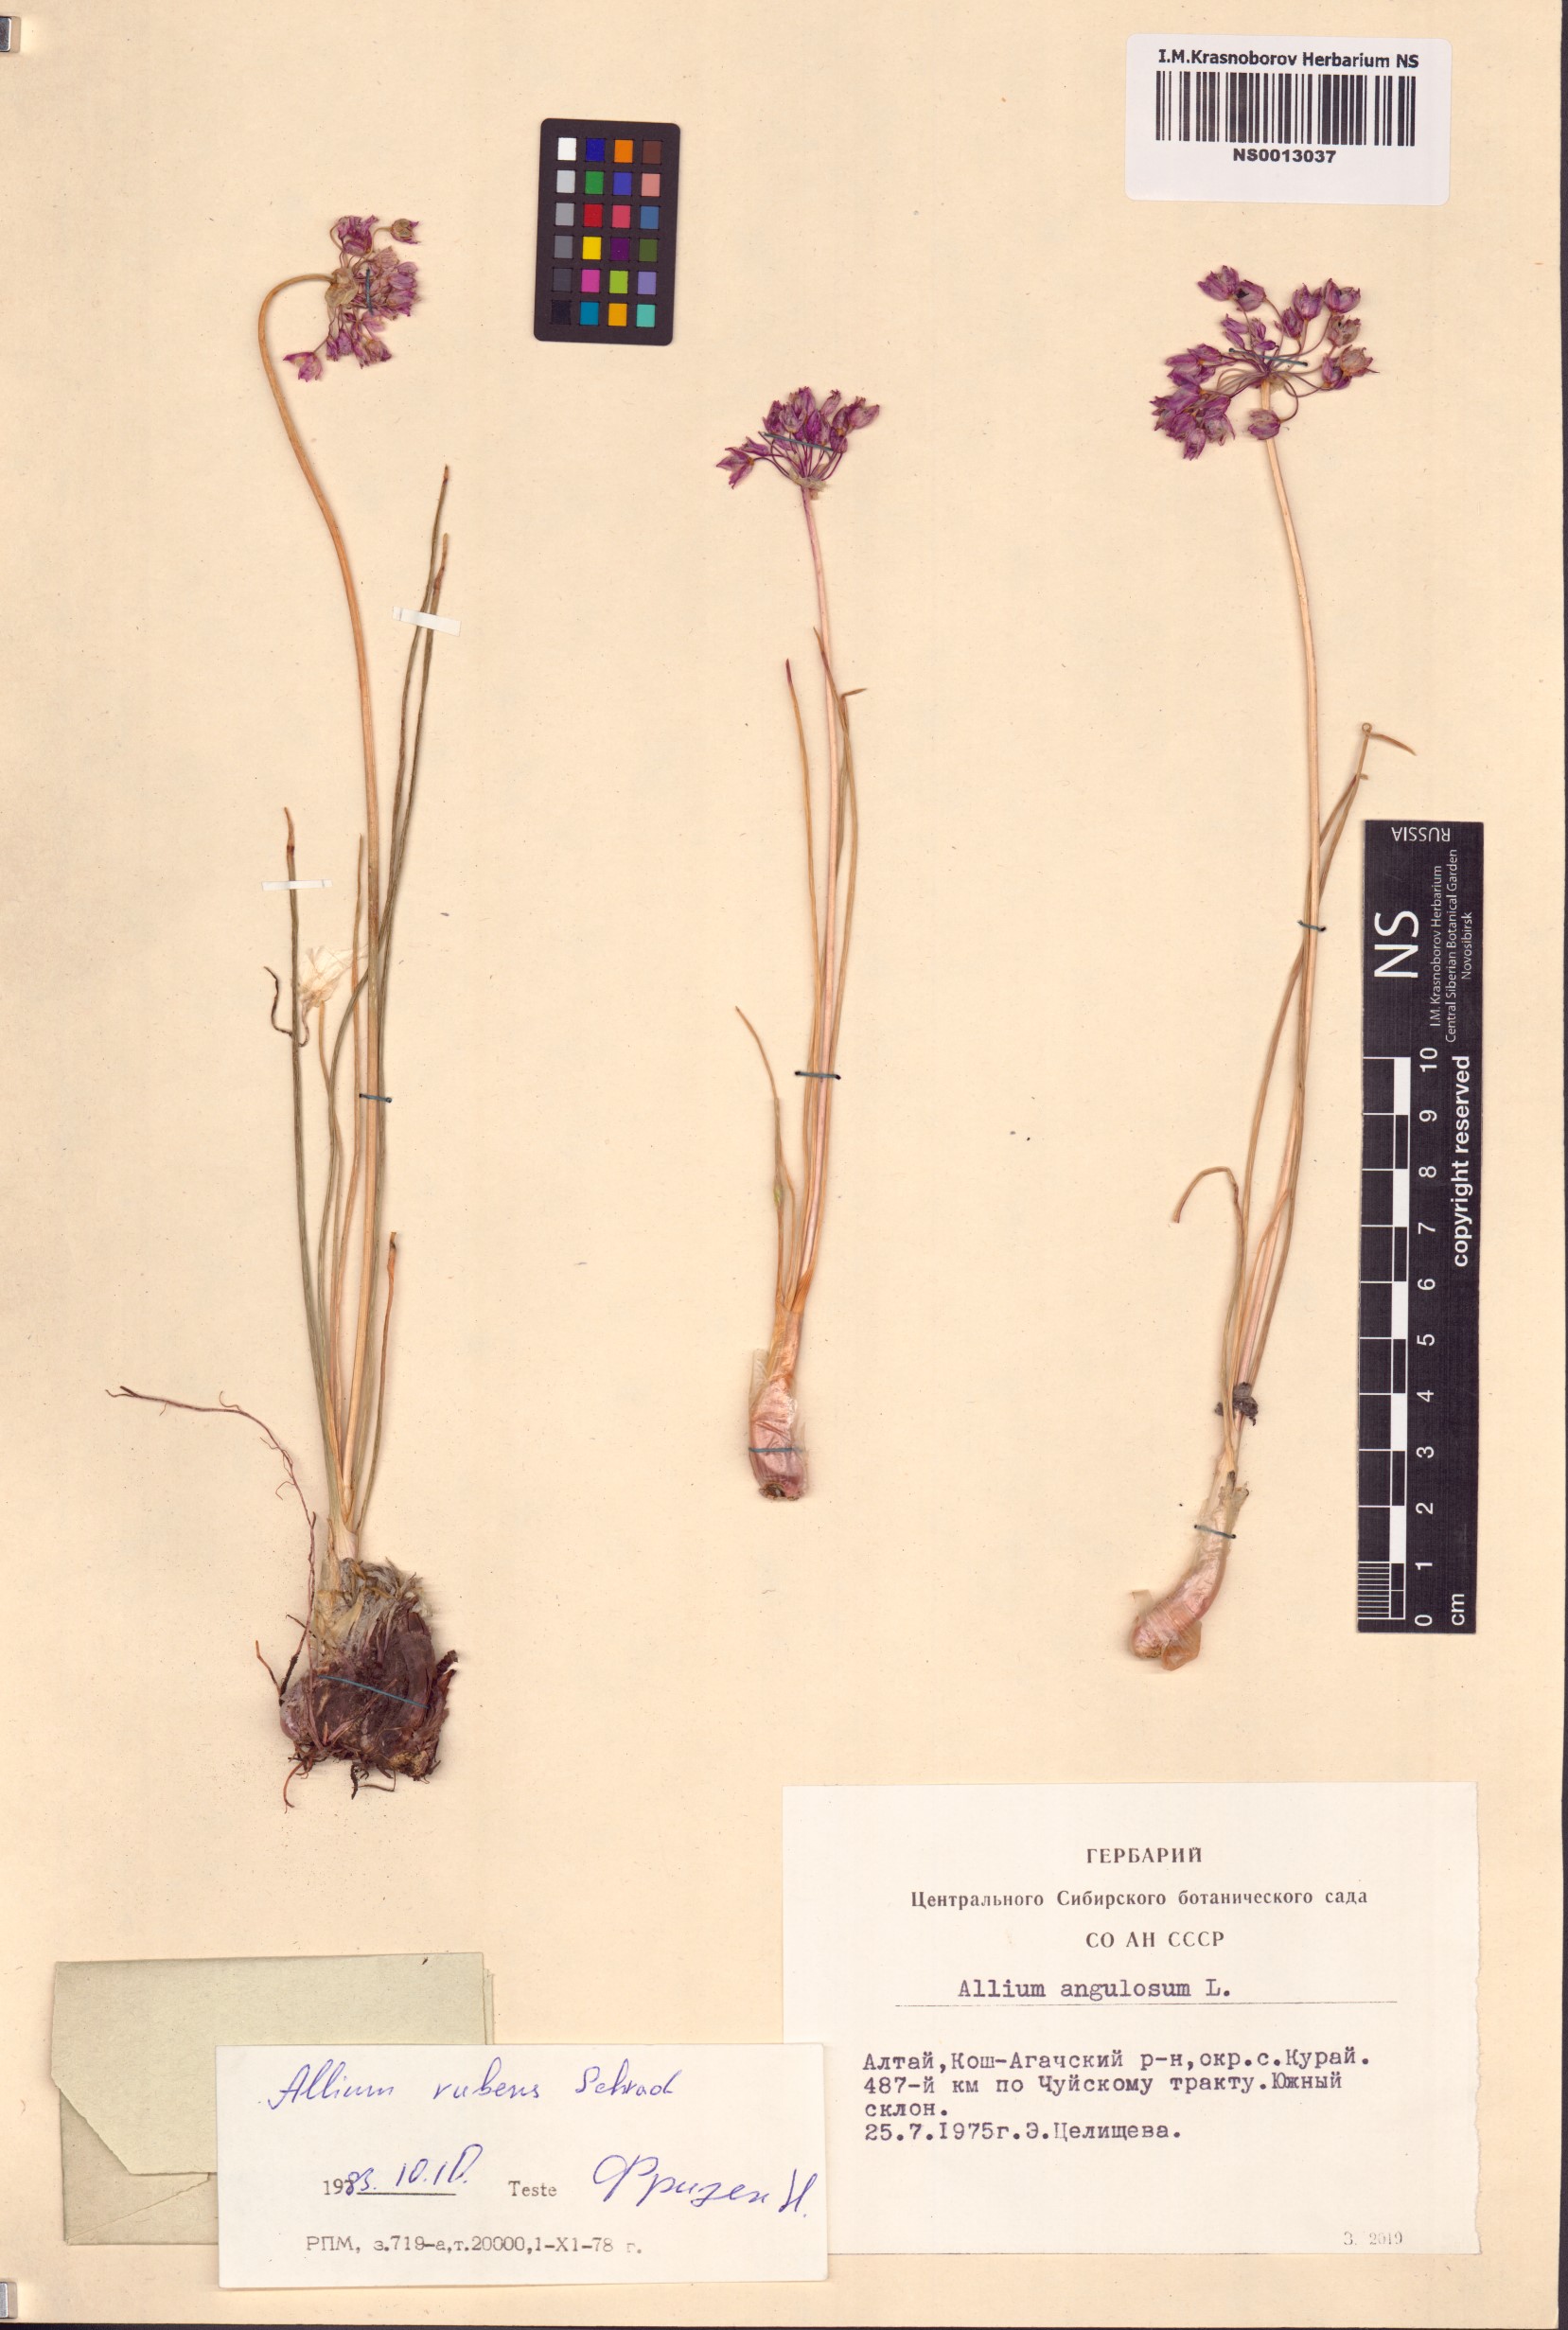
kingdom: Plantae
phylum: Tracheophyta
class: Liliopsida
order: Asparagales
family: Amaryllidaceae
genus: Allium
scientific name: Allium rubens
